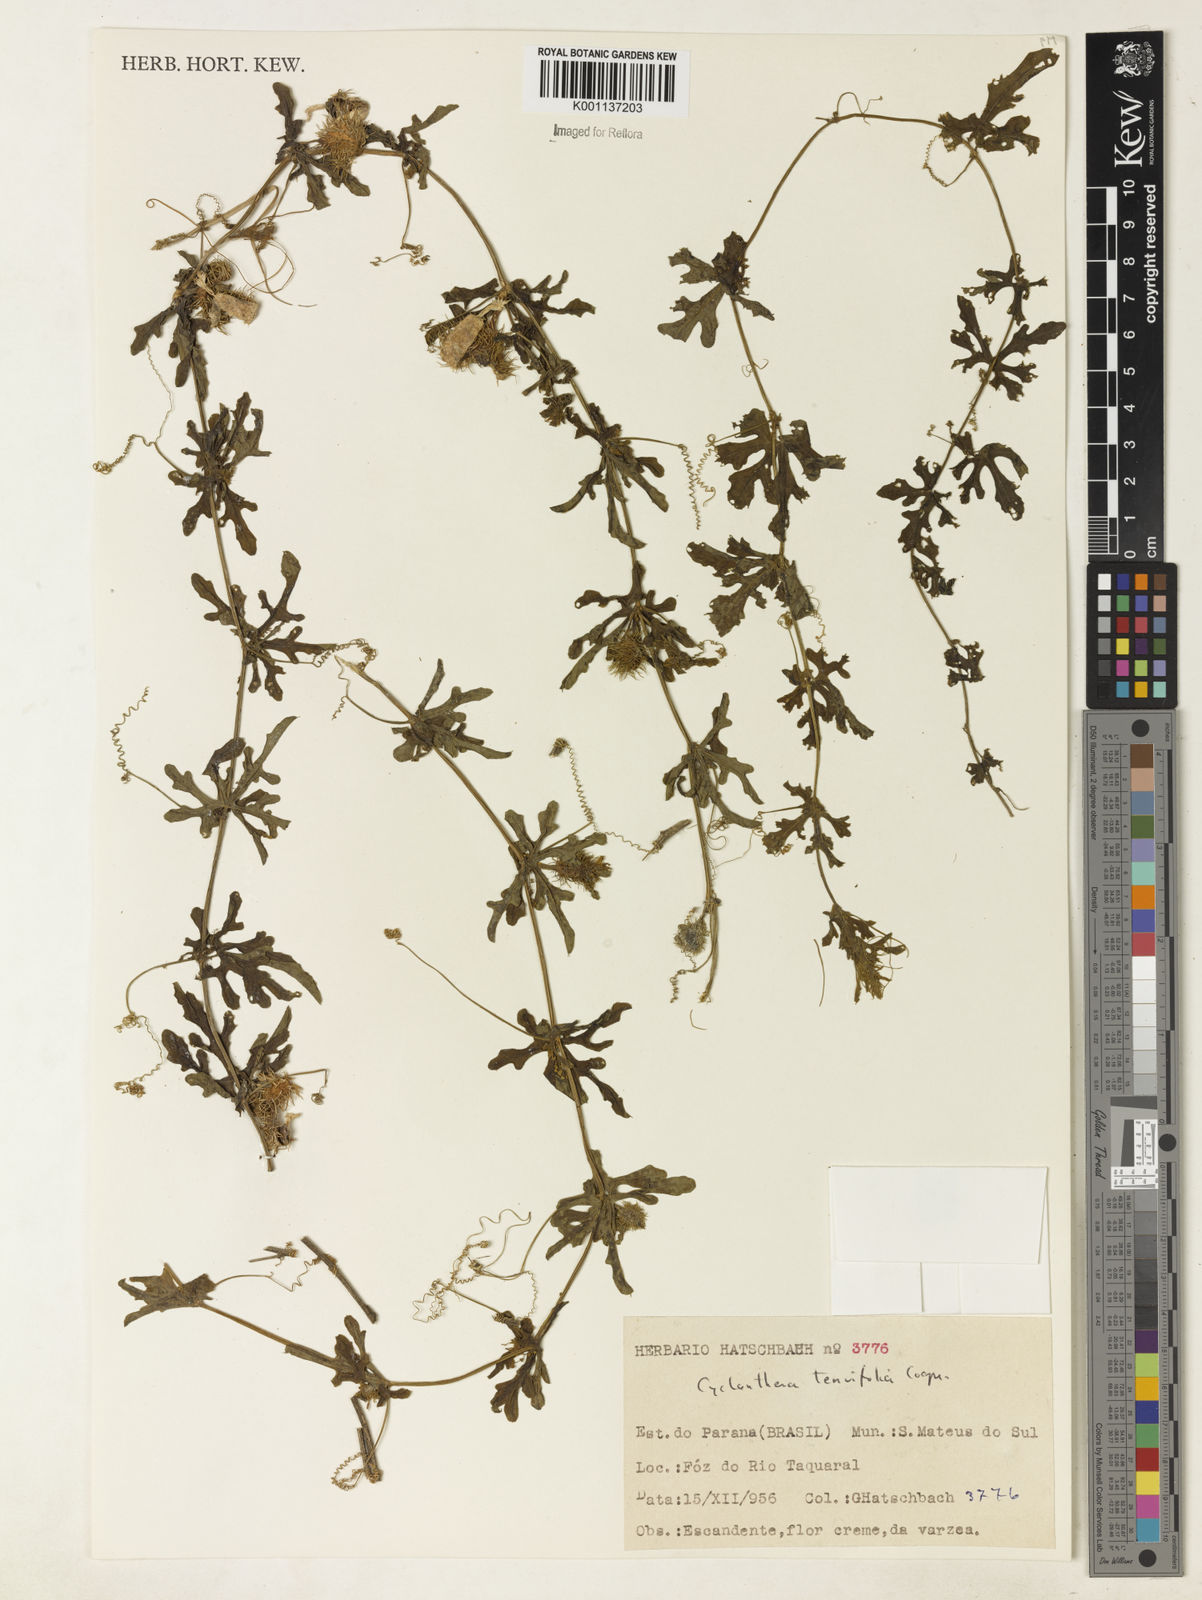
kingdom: Plantae
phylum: Tracheophyta
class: Magnoliopsida
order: Cucurbitales
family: Cucurbitaceae
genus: Cyclanthera
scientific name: Cyclanthera tenuifolia
